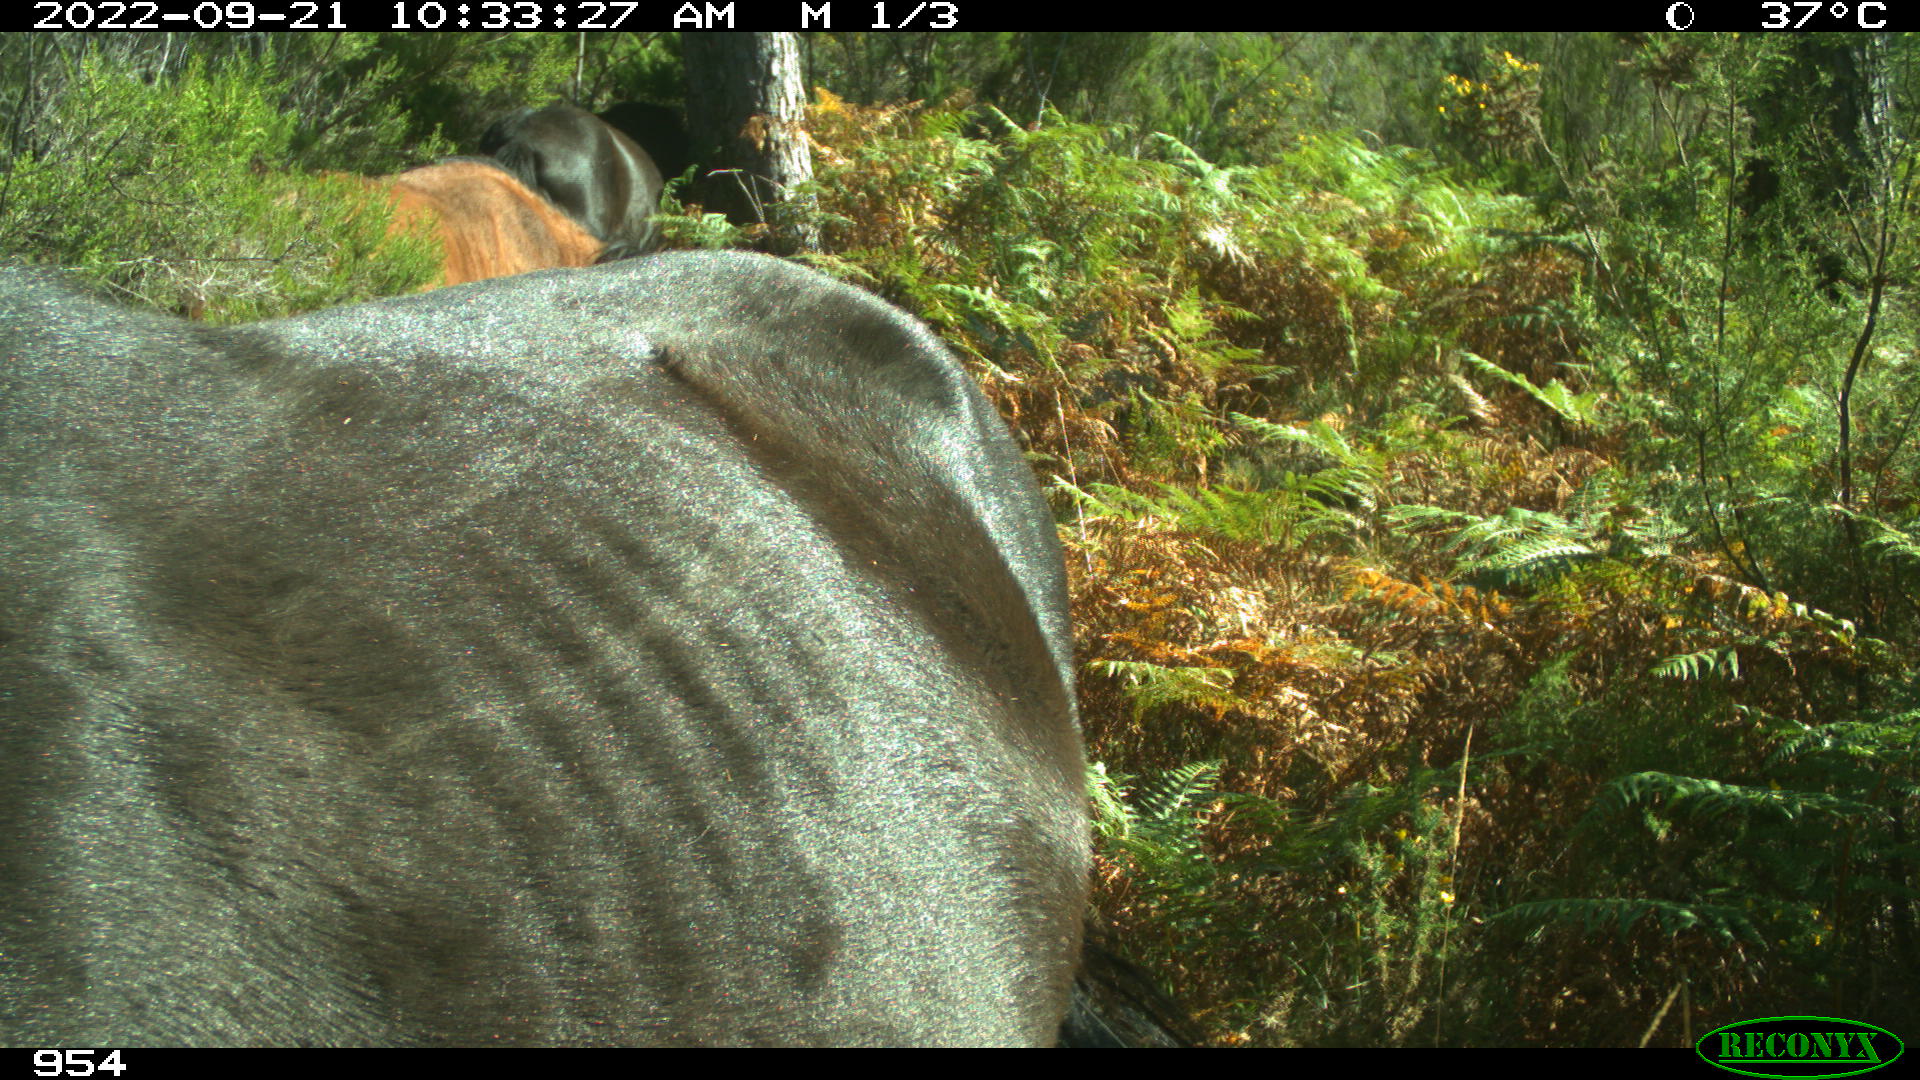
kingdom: Animalia
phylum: Chordata
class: Mammalia
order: Perissodactyla
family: Equidae
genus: Equus
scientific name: Equus caballus
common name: Horse
